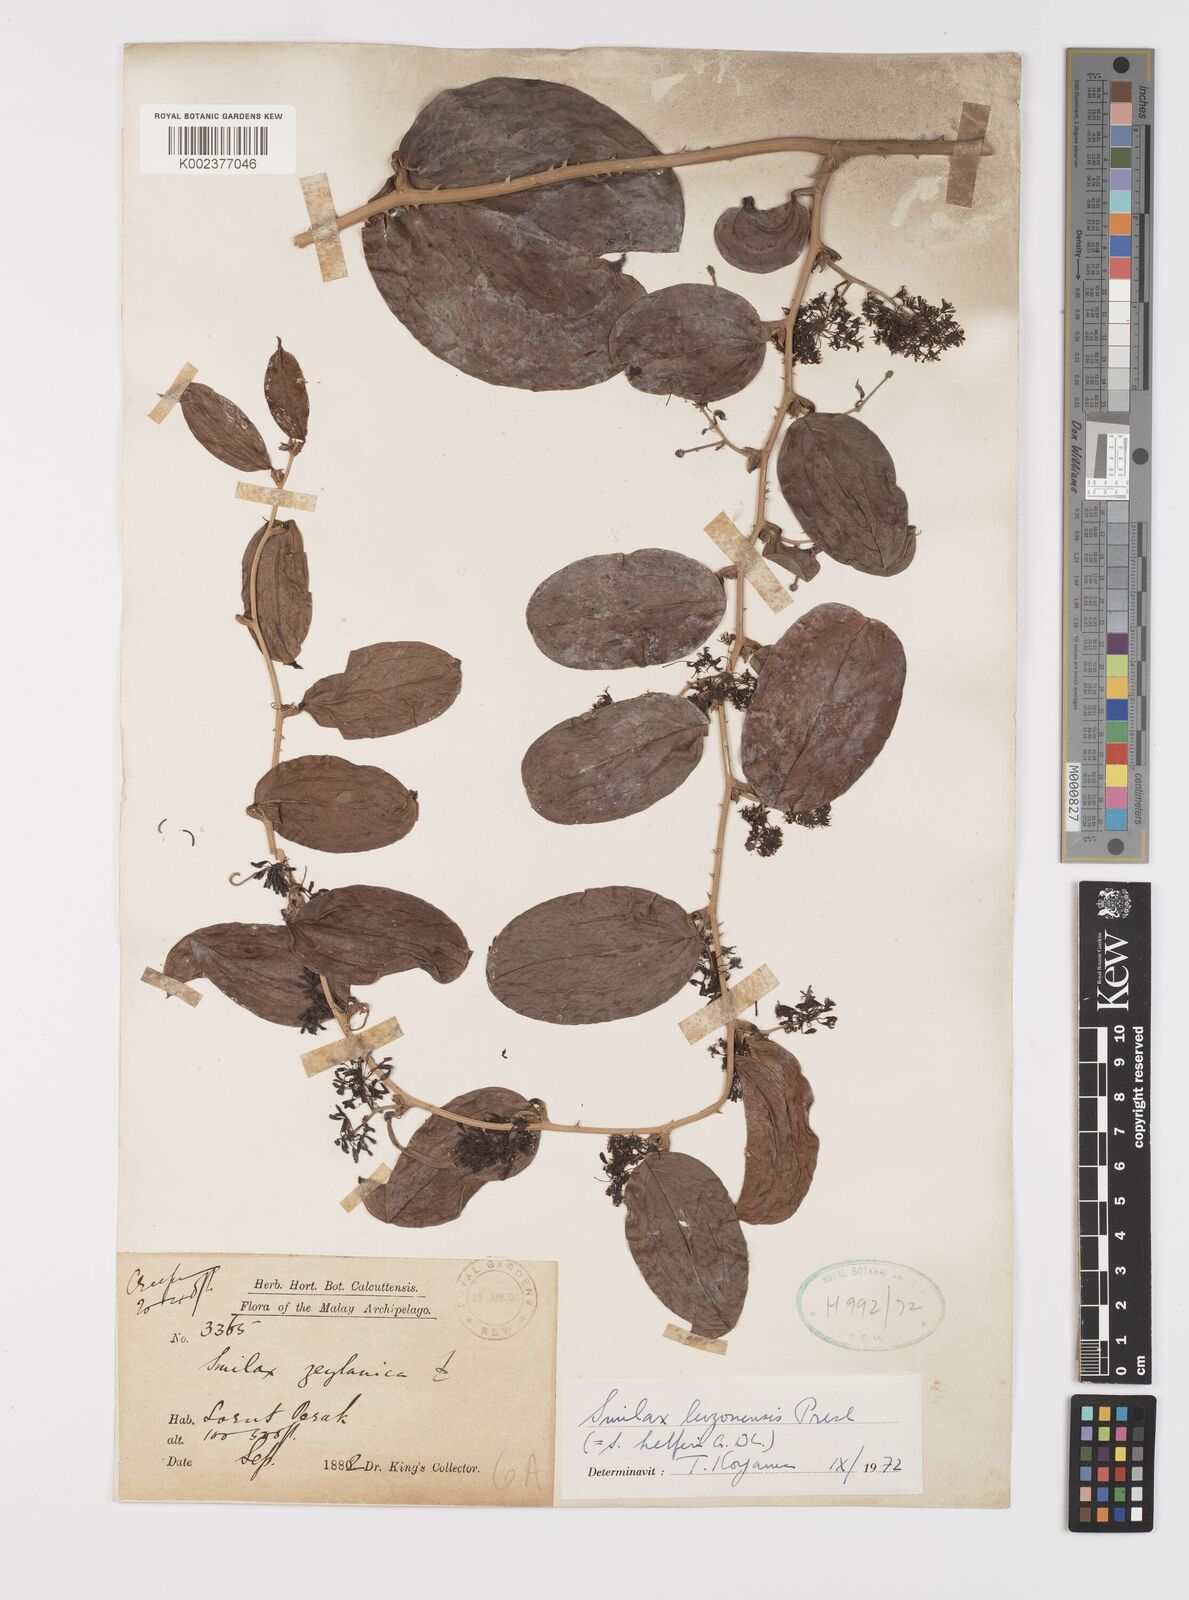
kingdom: Plantae
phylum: Tracheophyta
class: Liliopsida
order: Liliales
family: Smilacaceae
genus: Smilax
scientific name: Smilax luzonensis
